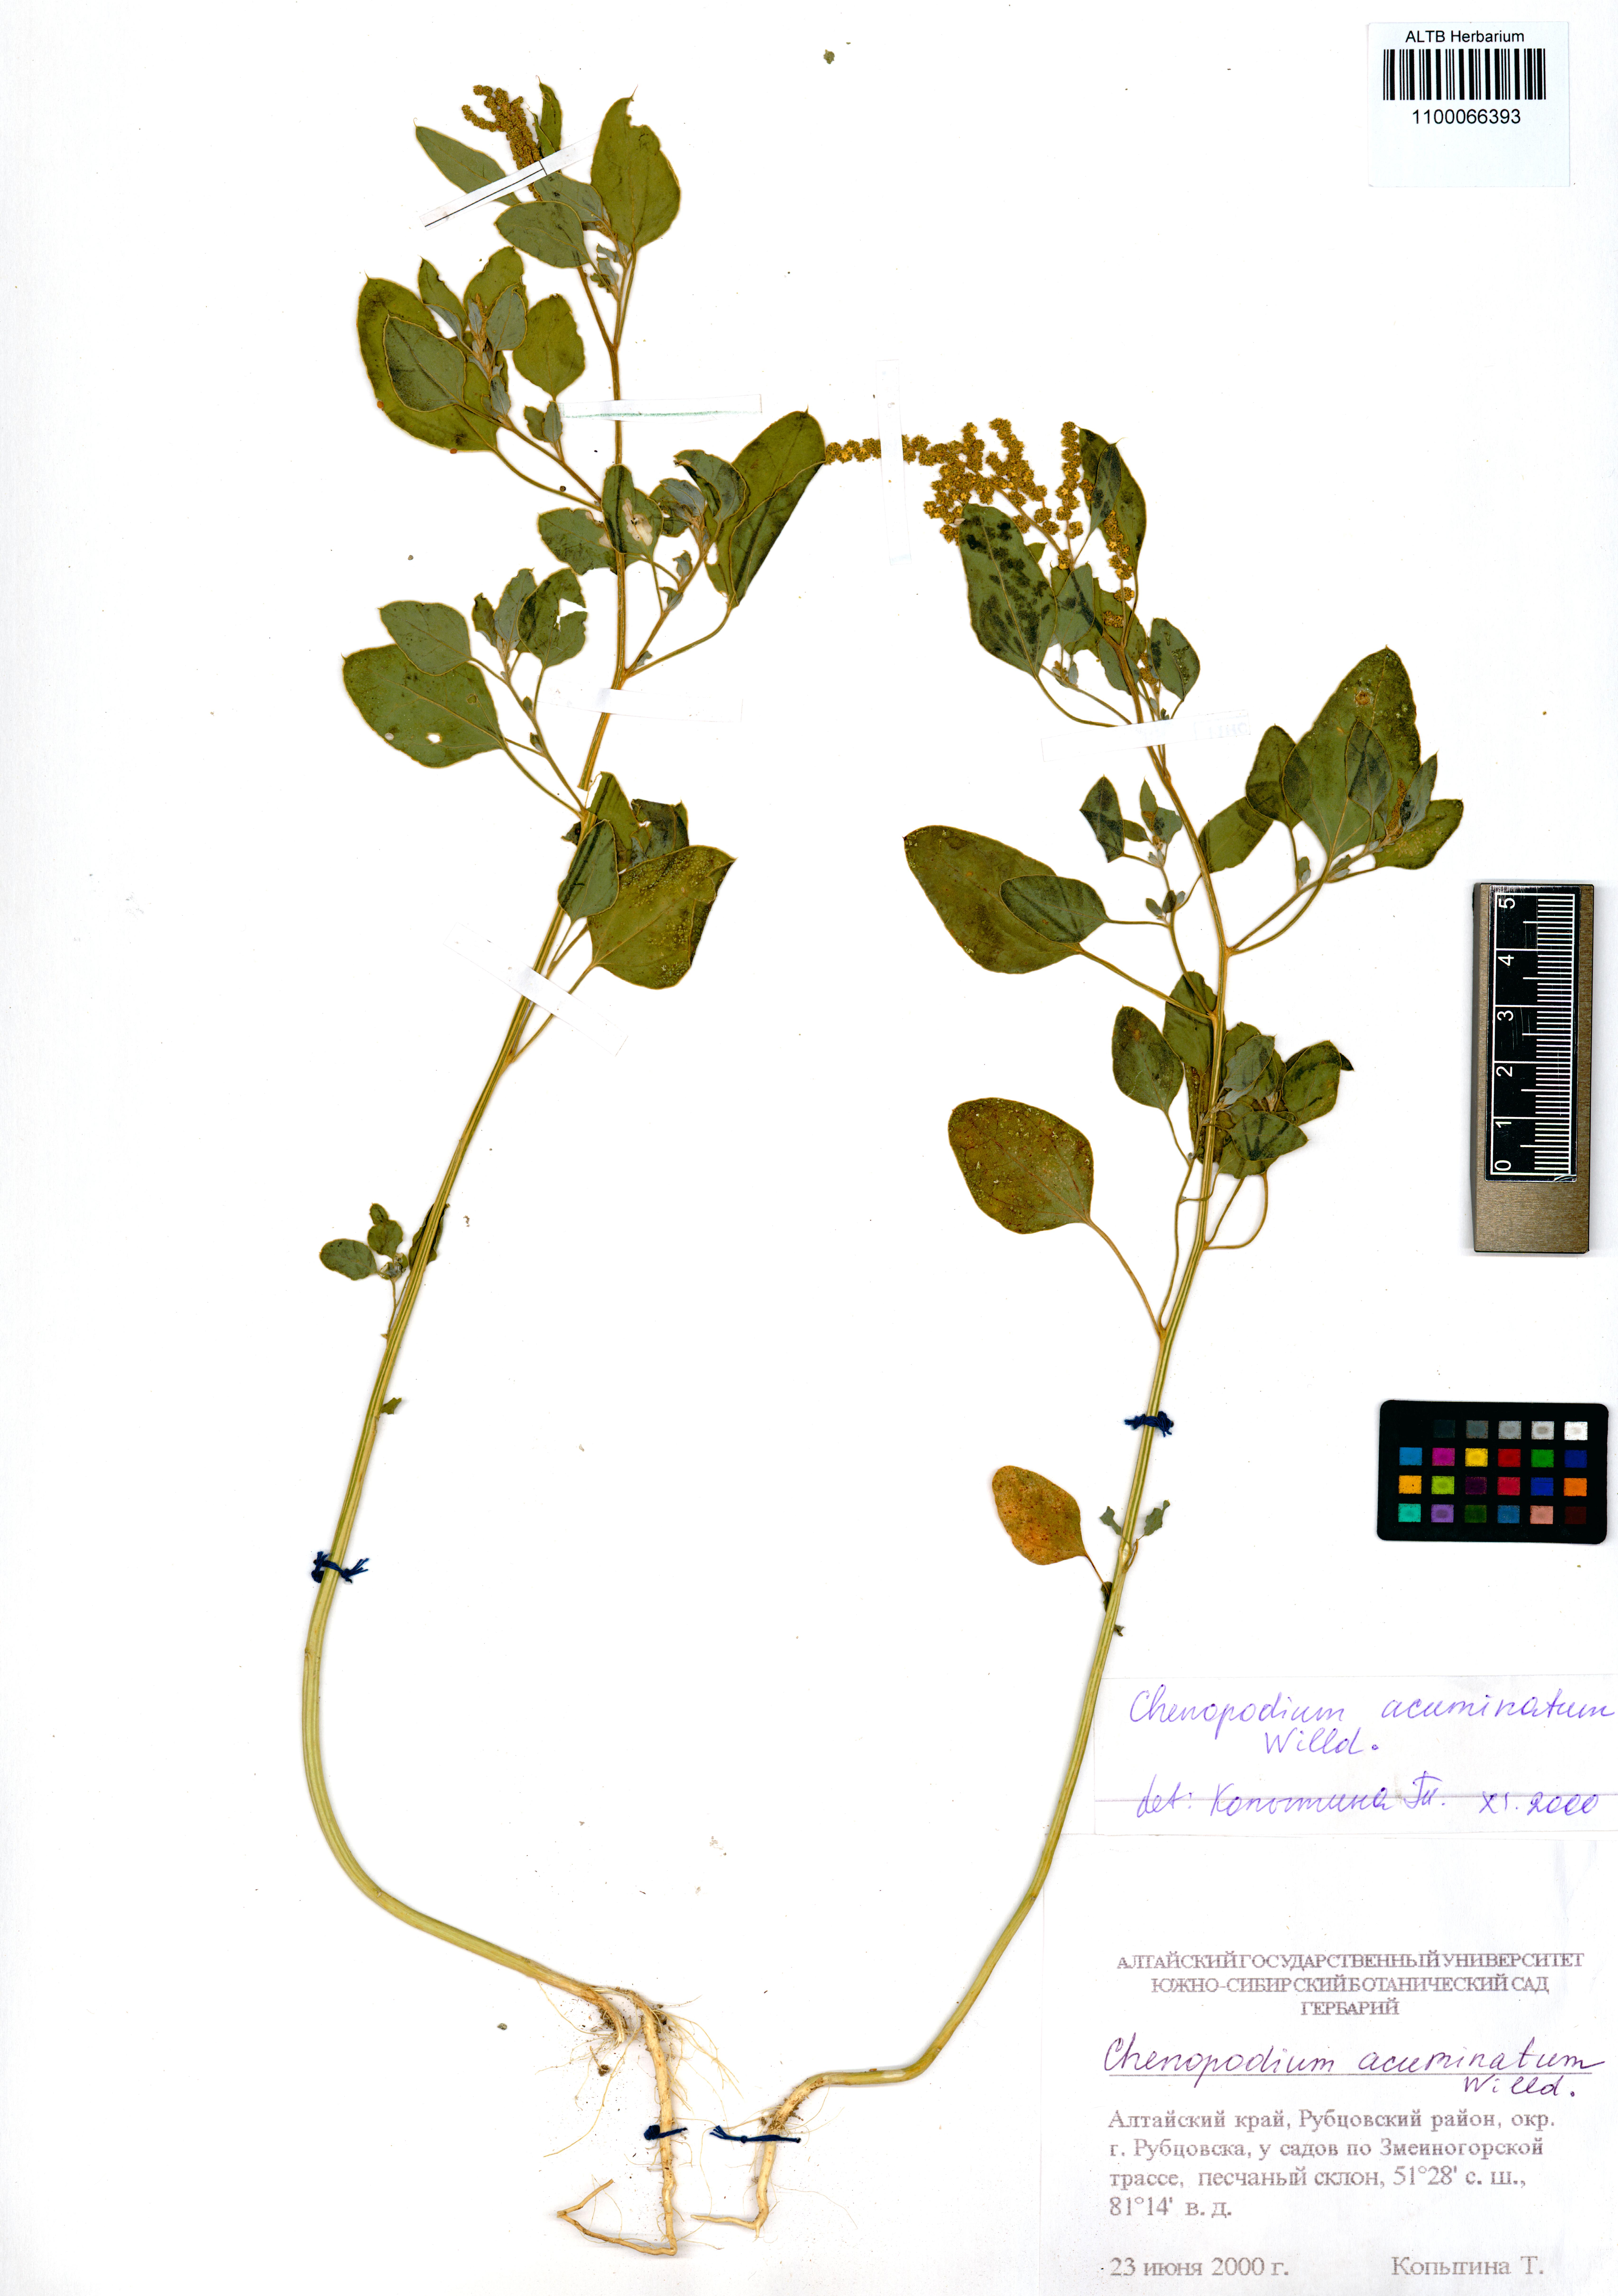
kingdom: Plantae
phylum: Tracheophyta
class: Magnoliopsida
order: Caryophyllales
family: Amaranthaceae
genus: Chenopodium
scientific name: Chenopodium acuminatum
